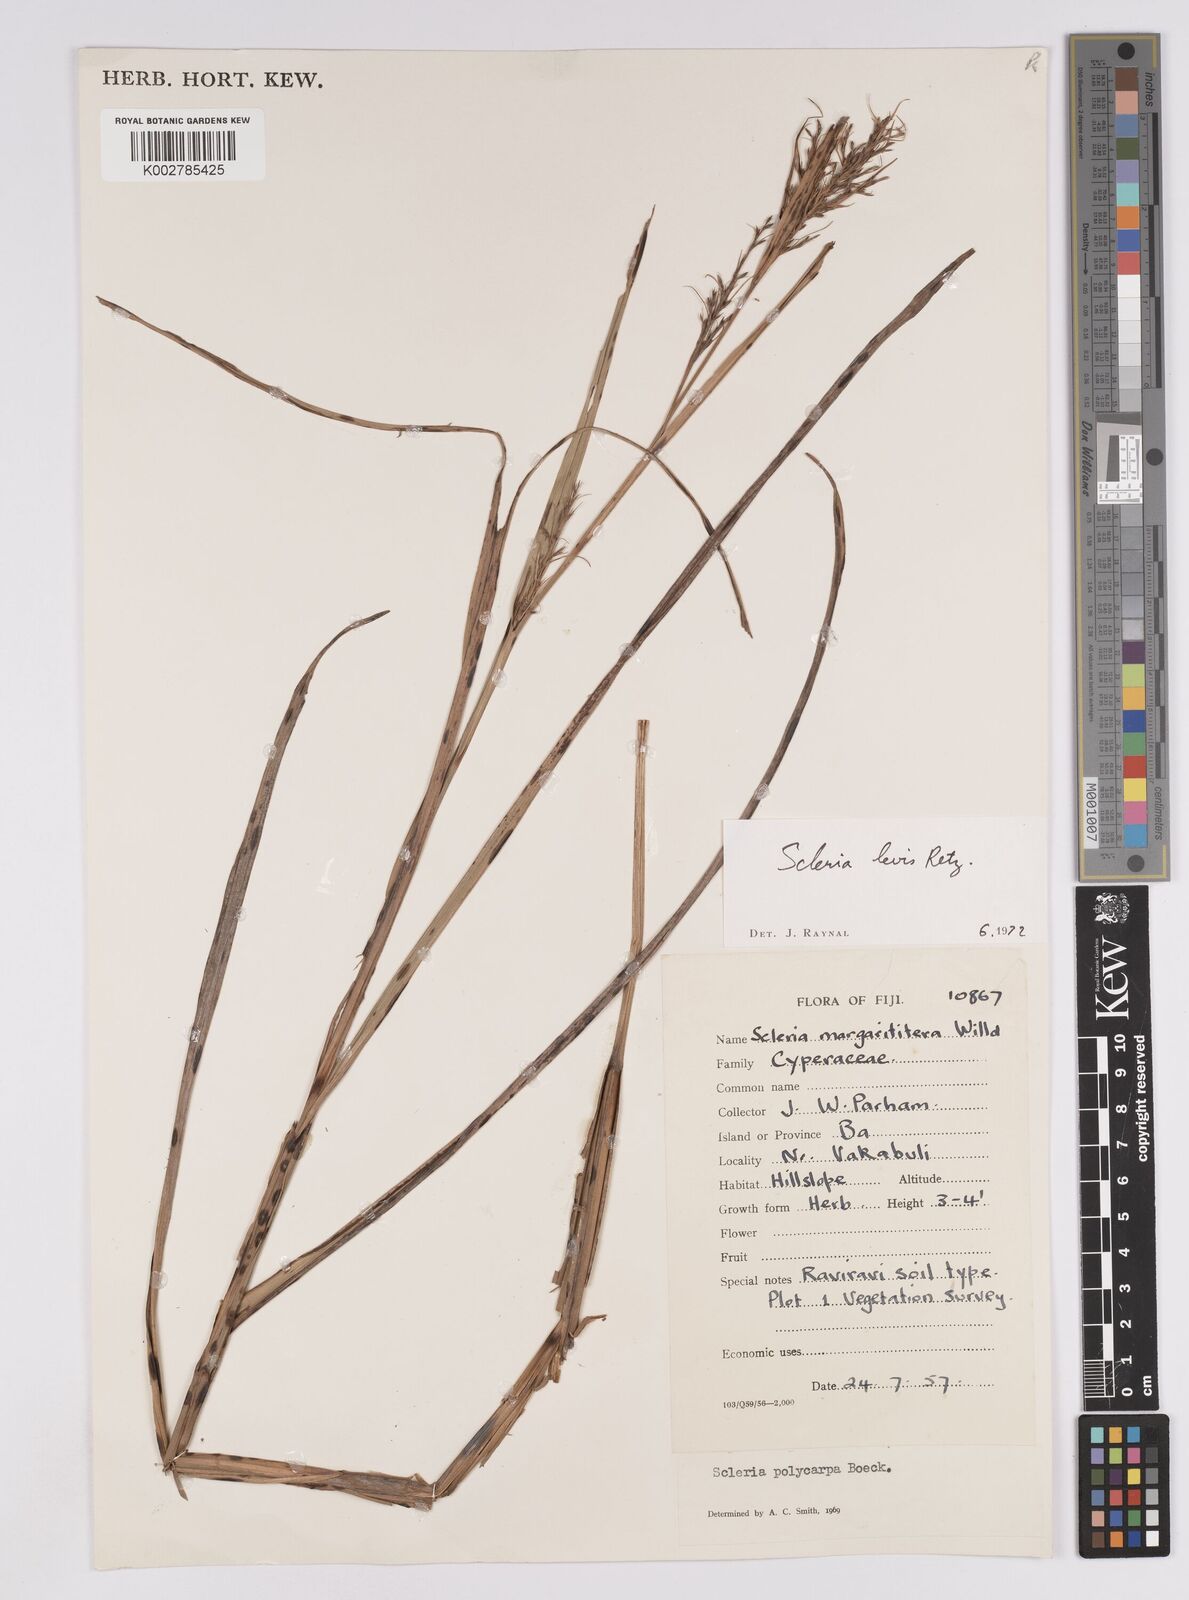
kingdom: Plantae
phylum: Tracheophyta
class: Liliopsida
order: Poales
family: Cyperaceae
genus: Scleria
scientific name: Scleria levis
